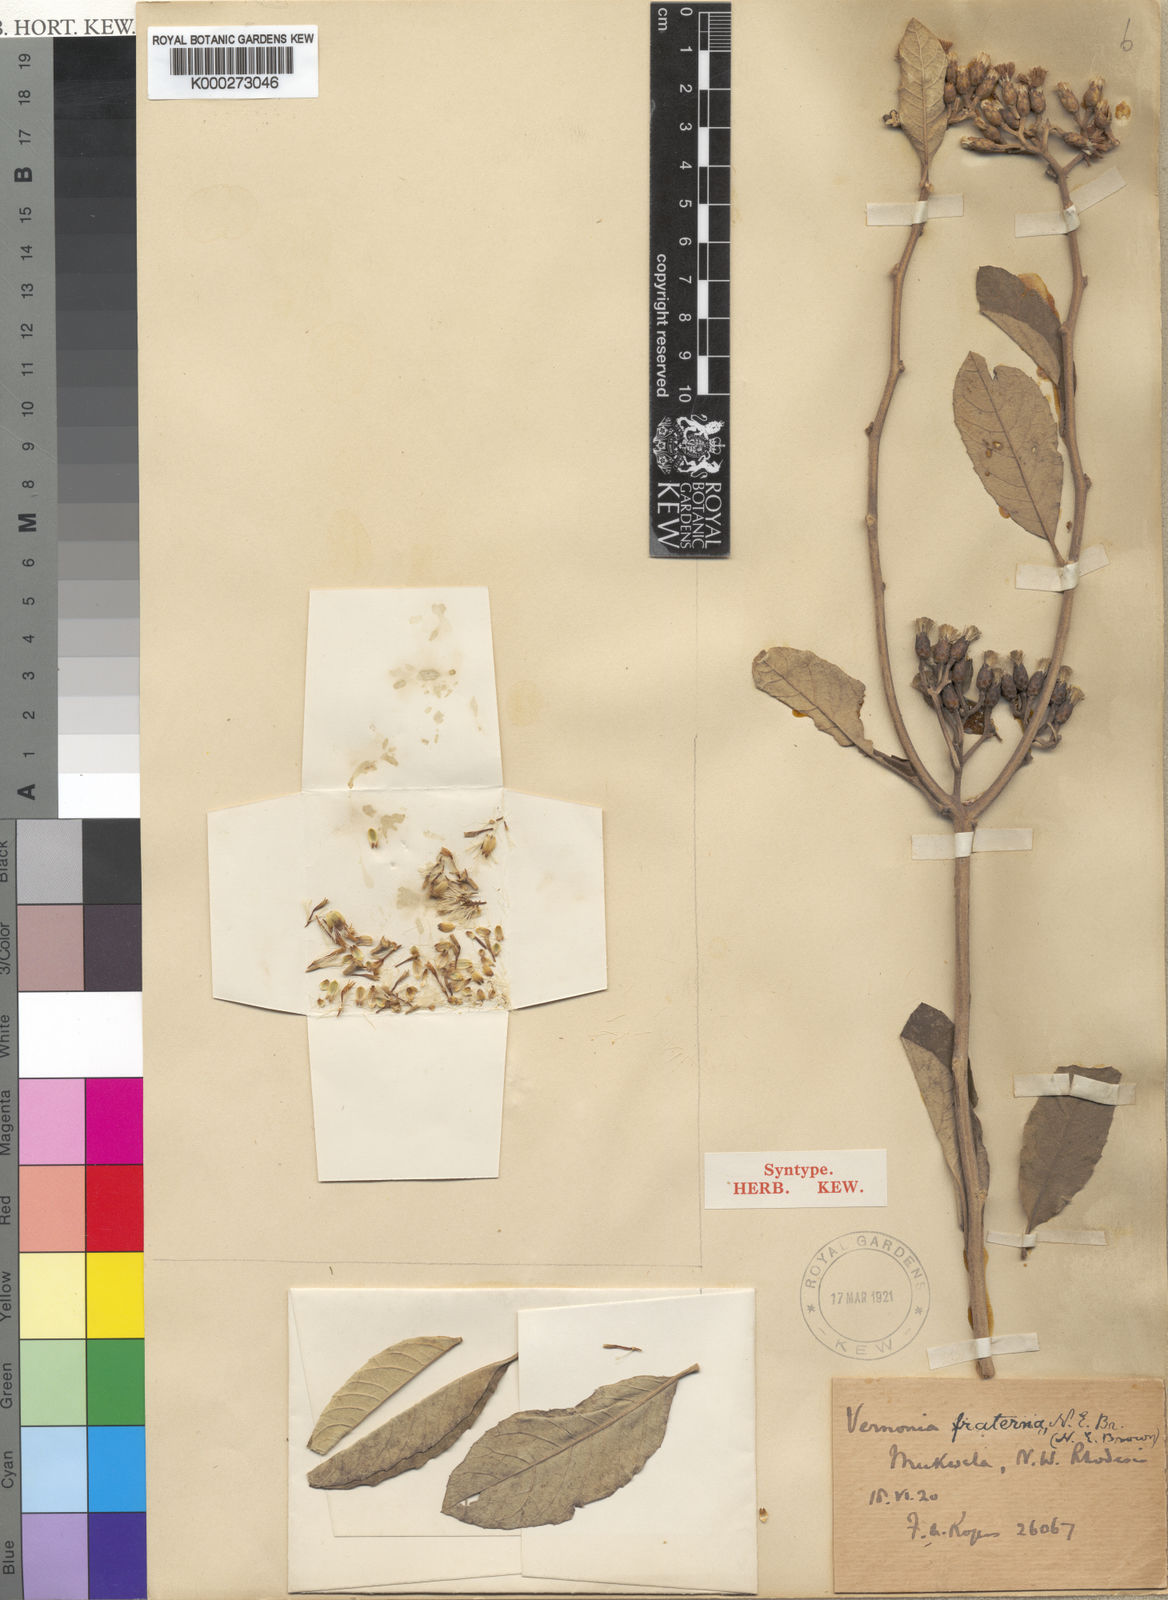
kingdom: Plantae
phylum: Tracheophyta
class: Magnoliopsida
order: Asterales
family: Asteraceae
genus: Gymnanthemum
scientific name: Gymnanthemum bellinghamii
